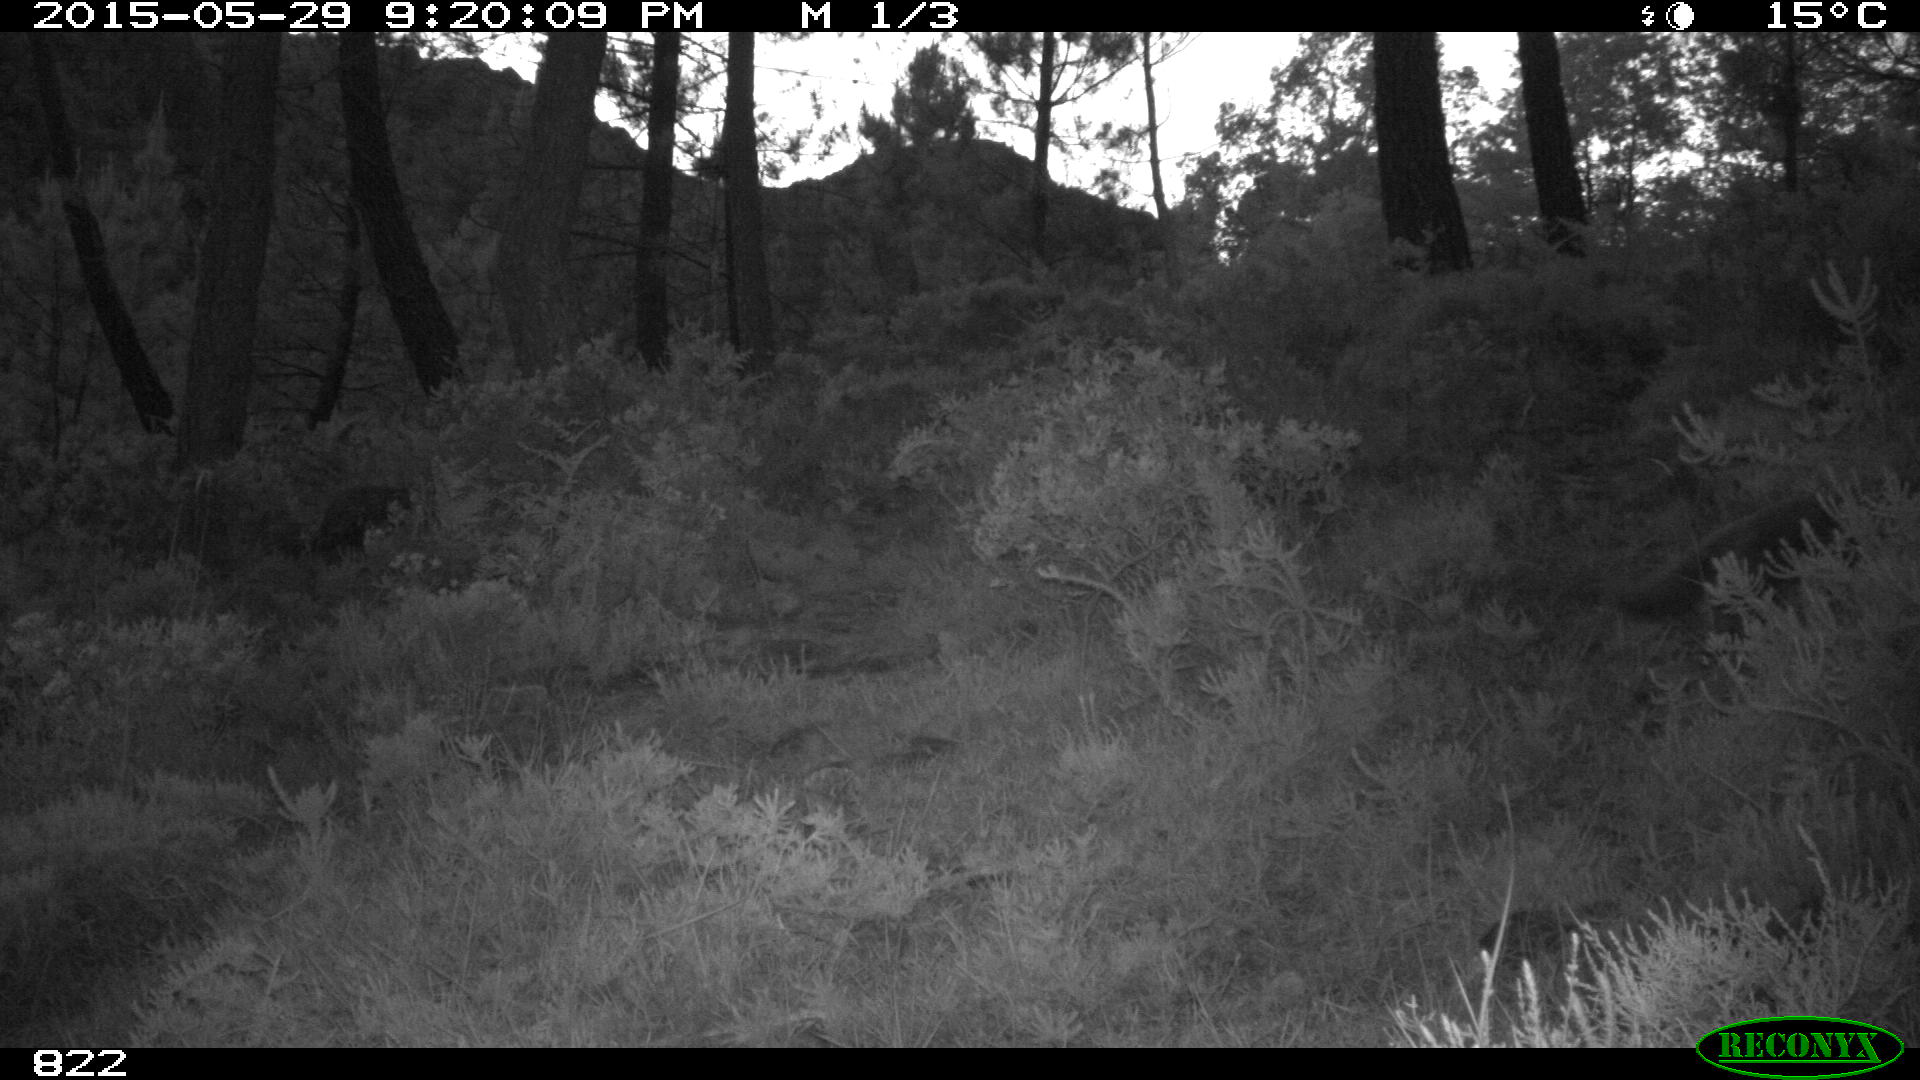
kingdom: Animalia
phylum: Chordata
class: Mammalia
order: Carnivora
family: Canidae
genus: Vulpes
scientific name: Vulpes vulpes
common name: Red fox
